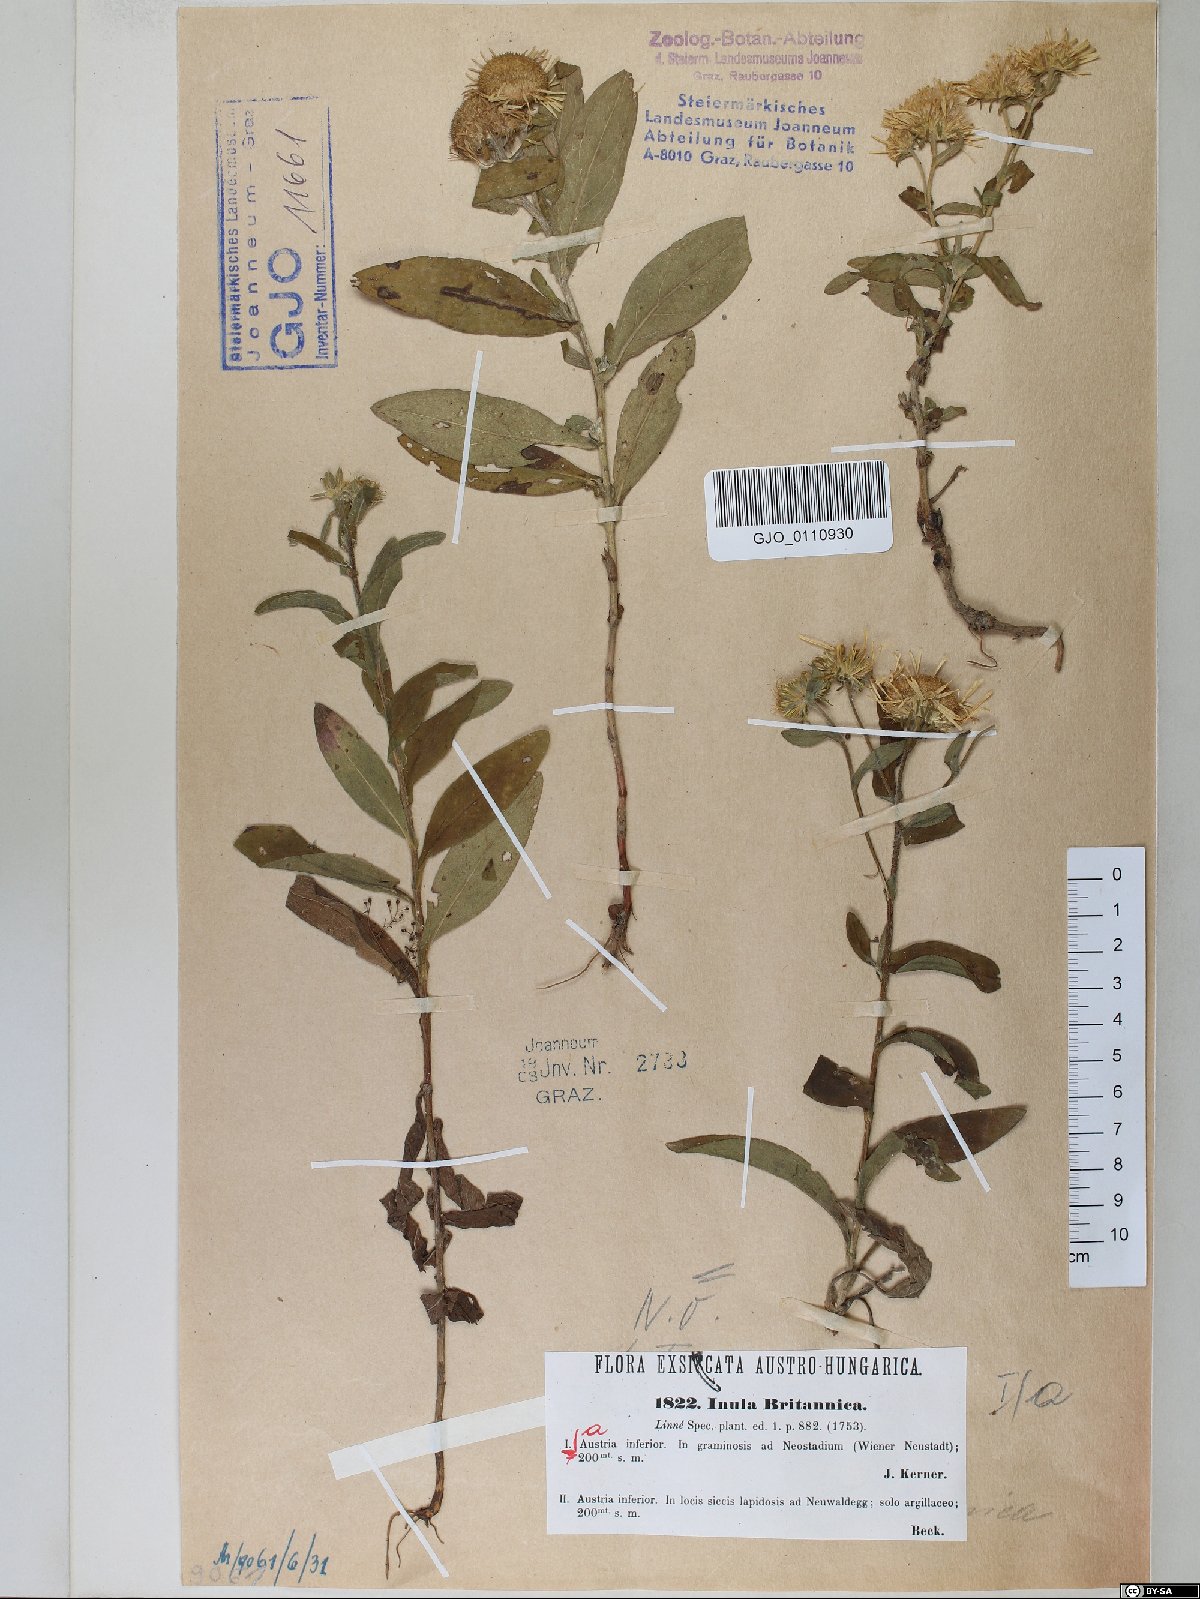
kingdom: Plantae
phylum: Tracheophyta
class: Magnoliopsida
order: Asterales
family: Asteraceae
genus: Pentanema
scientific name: Pentanema britannicum
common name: British elecampane
